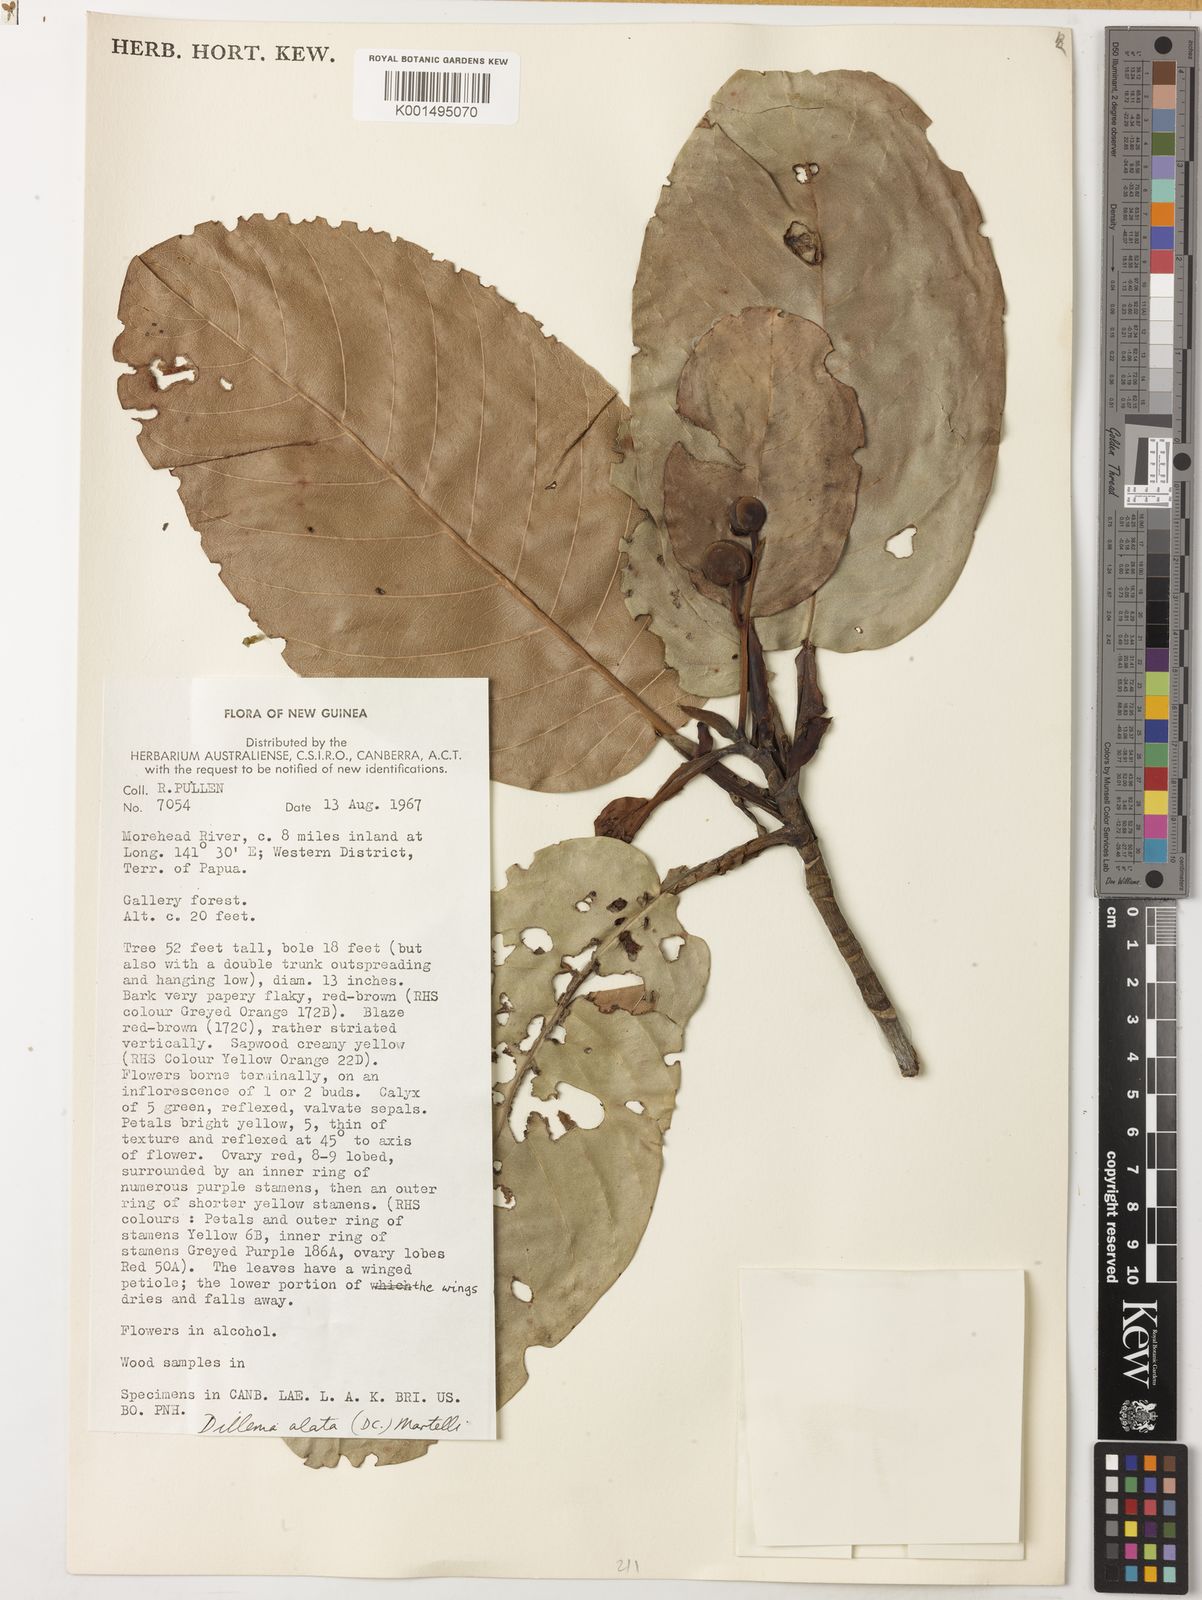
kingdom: Plantae
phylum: Tracheophyta
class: Magnoliopsida
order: Dilleniales
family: Dilleniaceae
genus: Dillenia
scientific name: Dillenia alata
